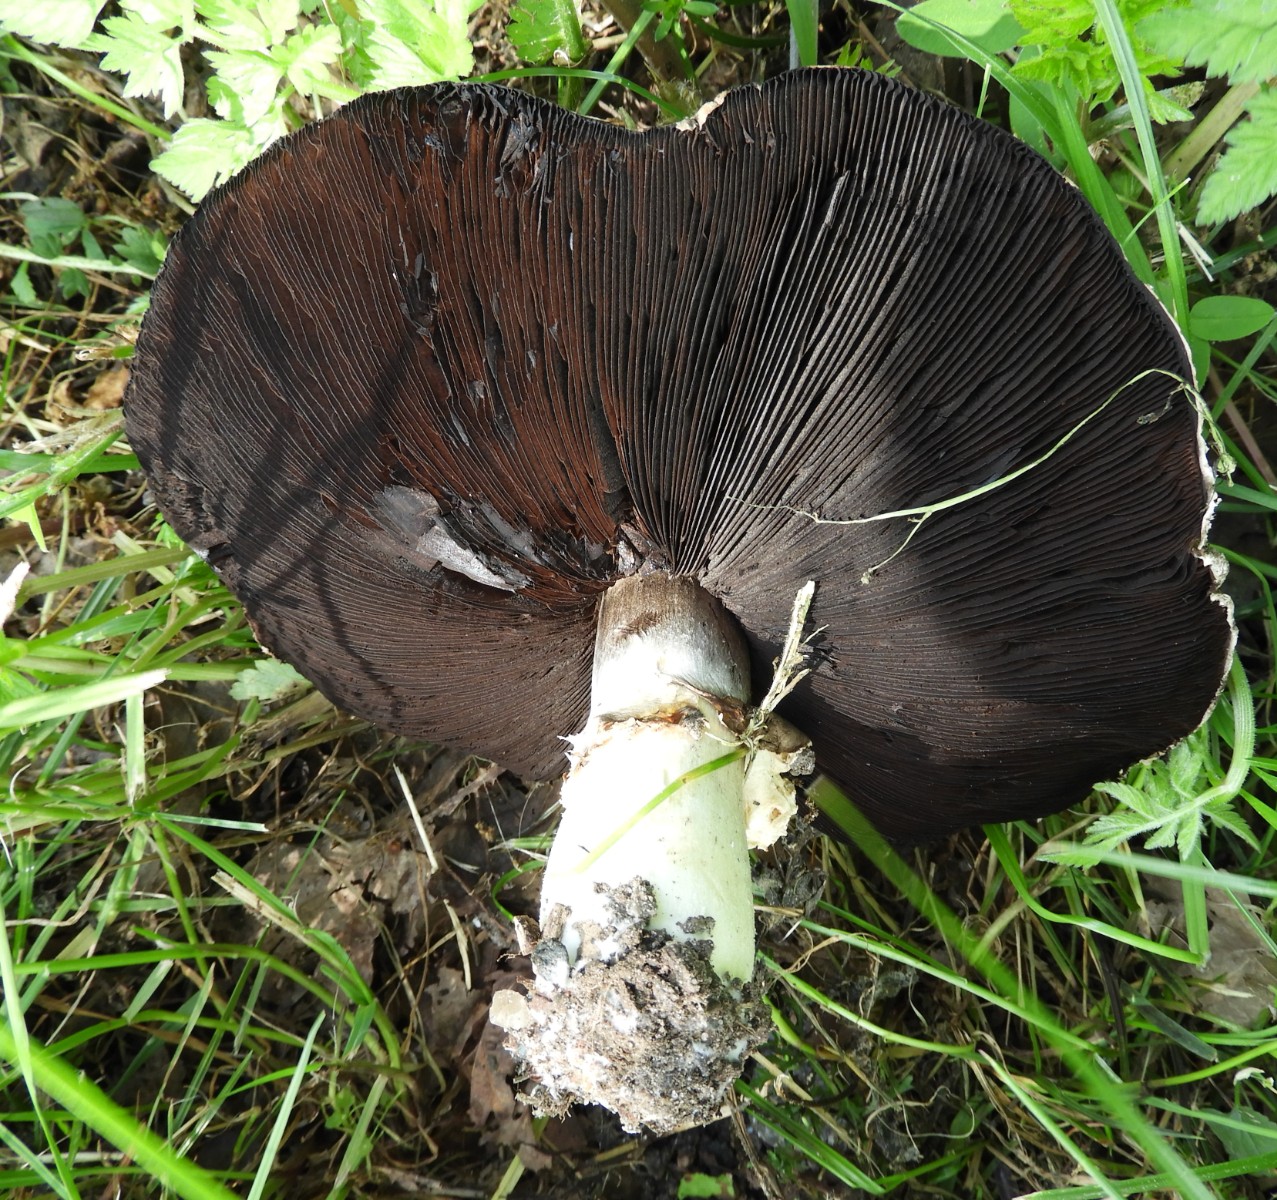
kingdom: Fungi
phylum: Basidiomycota
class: Agaricomycetes
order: Agaricales
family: Agaricaceae
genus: Agaricus
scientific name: Agaricus campestris
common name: mark-champignon
